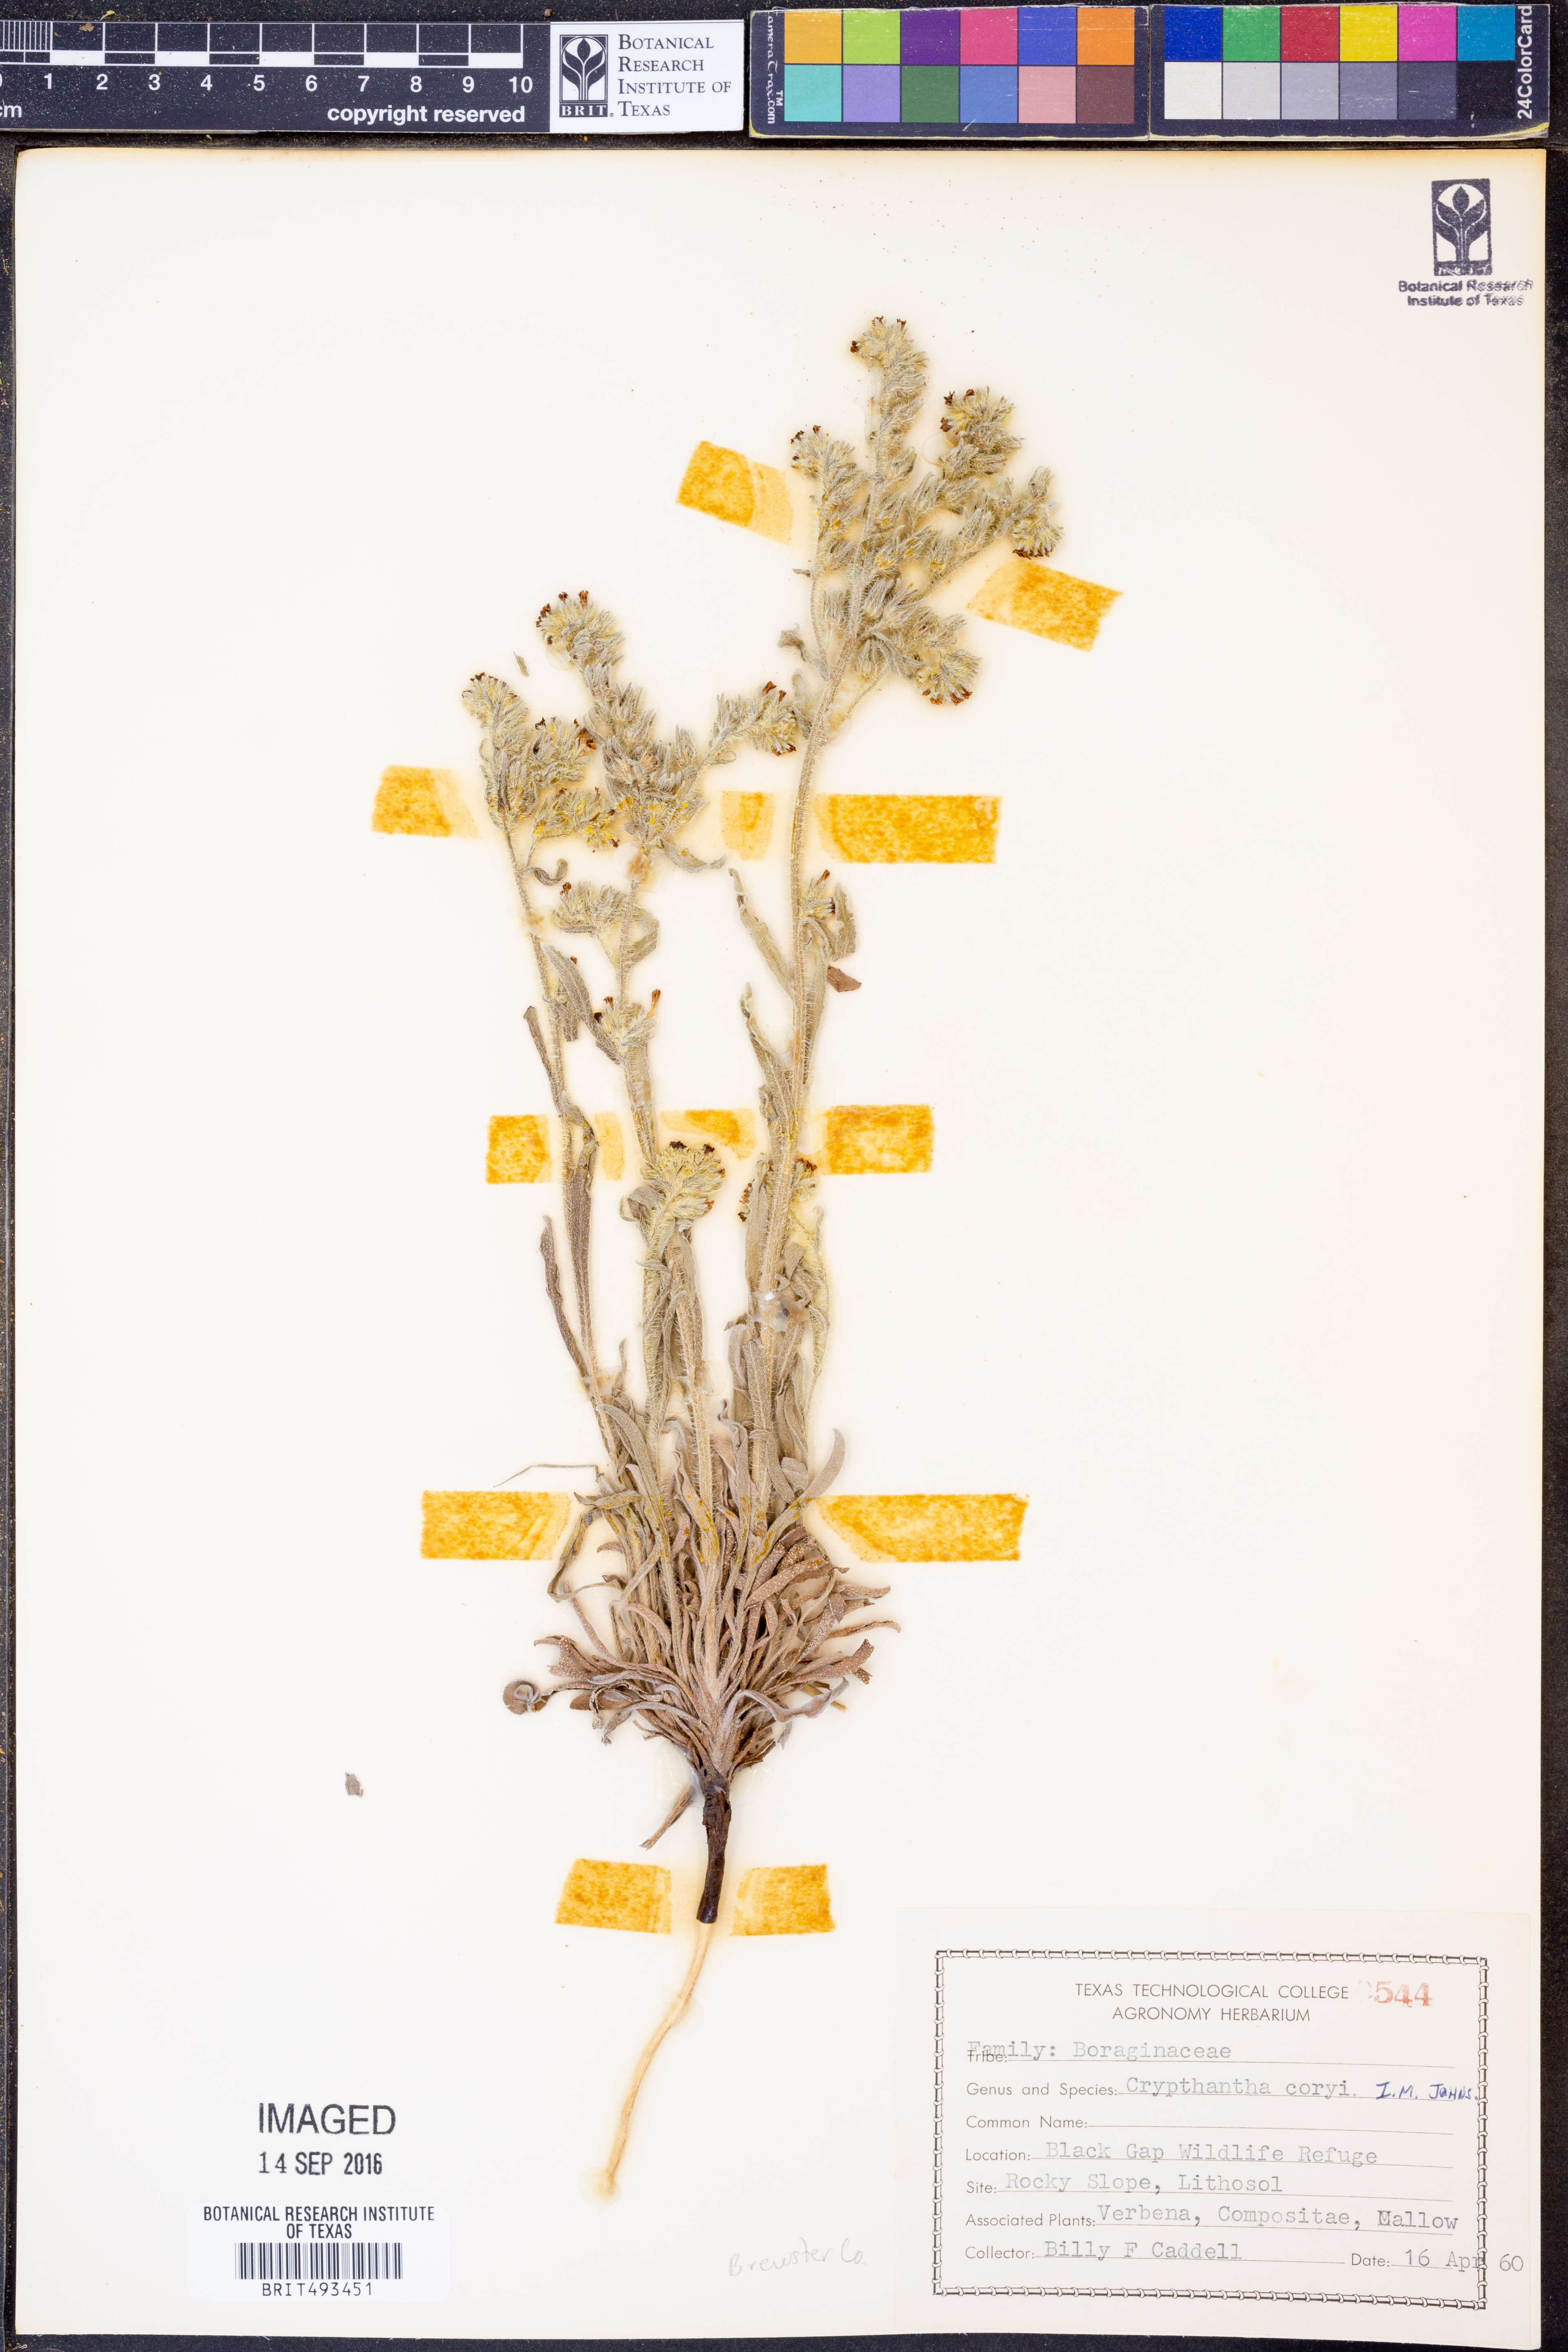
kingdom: Plantae
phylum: Tracheophyta
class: Magnoliopsida
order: Boraginales
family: Boraginaceae
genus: Oreocarya
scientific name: Oreocarya palmeri
